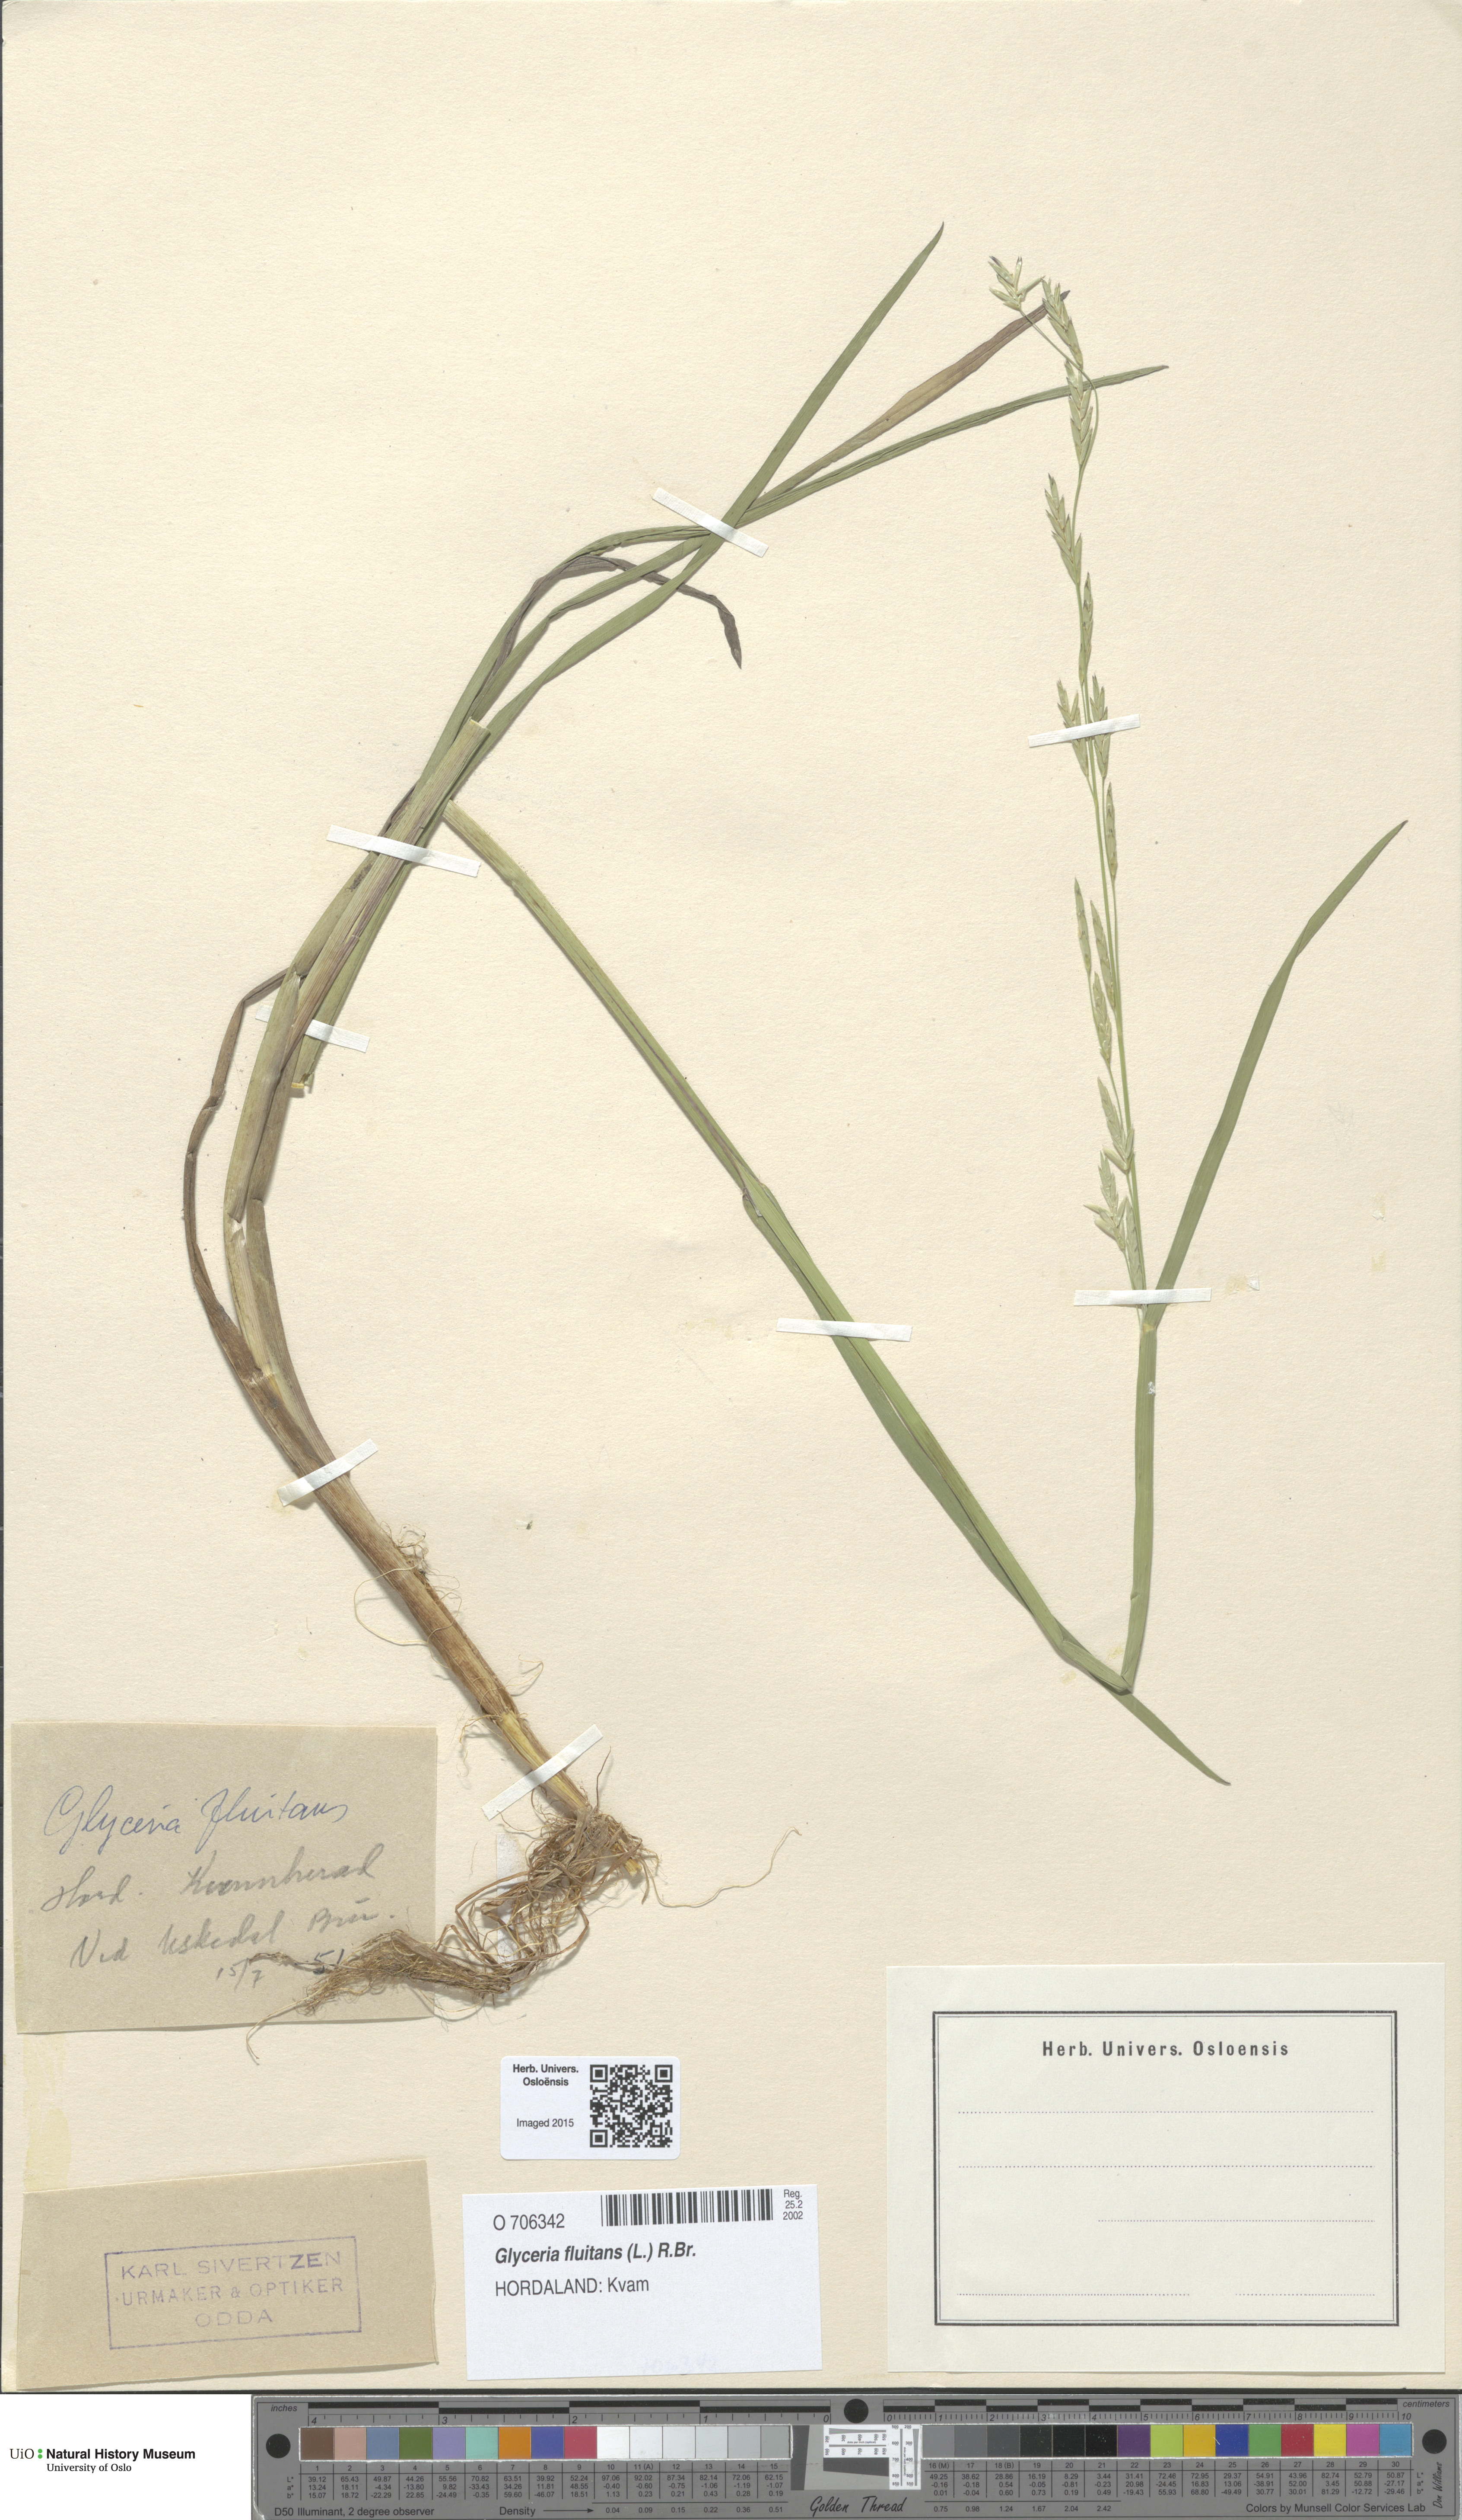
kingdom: Plantae
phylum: Tracheophyta
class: Liliopsida
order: Poales
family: Poaceae
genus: Glyceria
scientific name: Glyceria fluitans
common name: Floating sweet-grass
